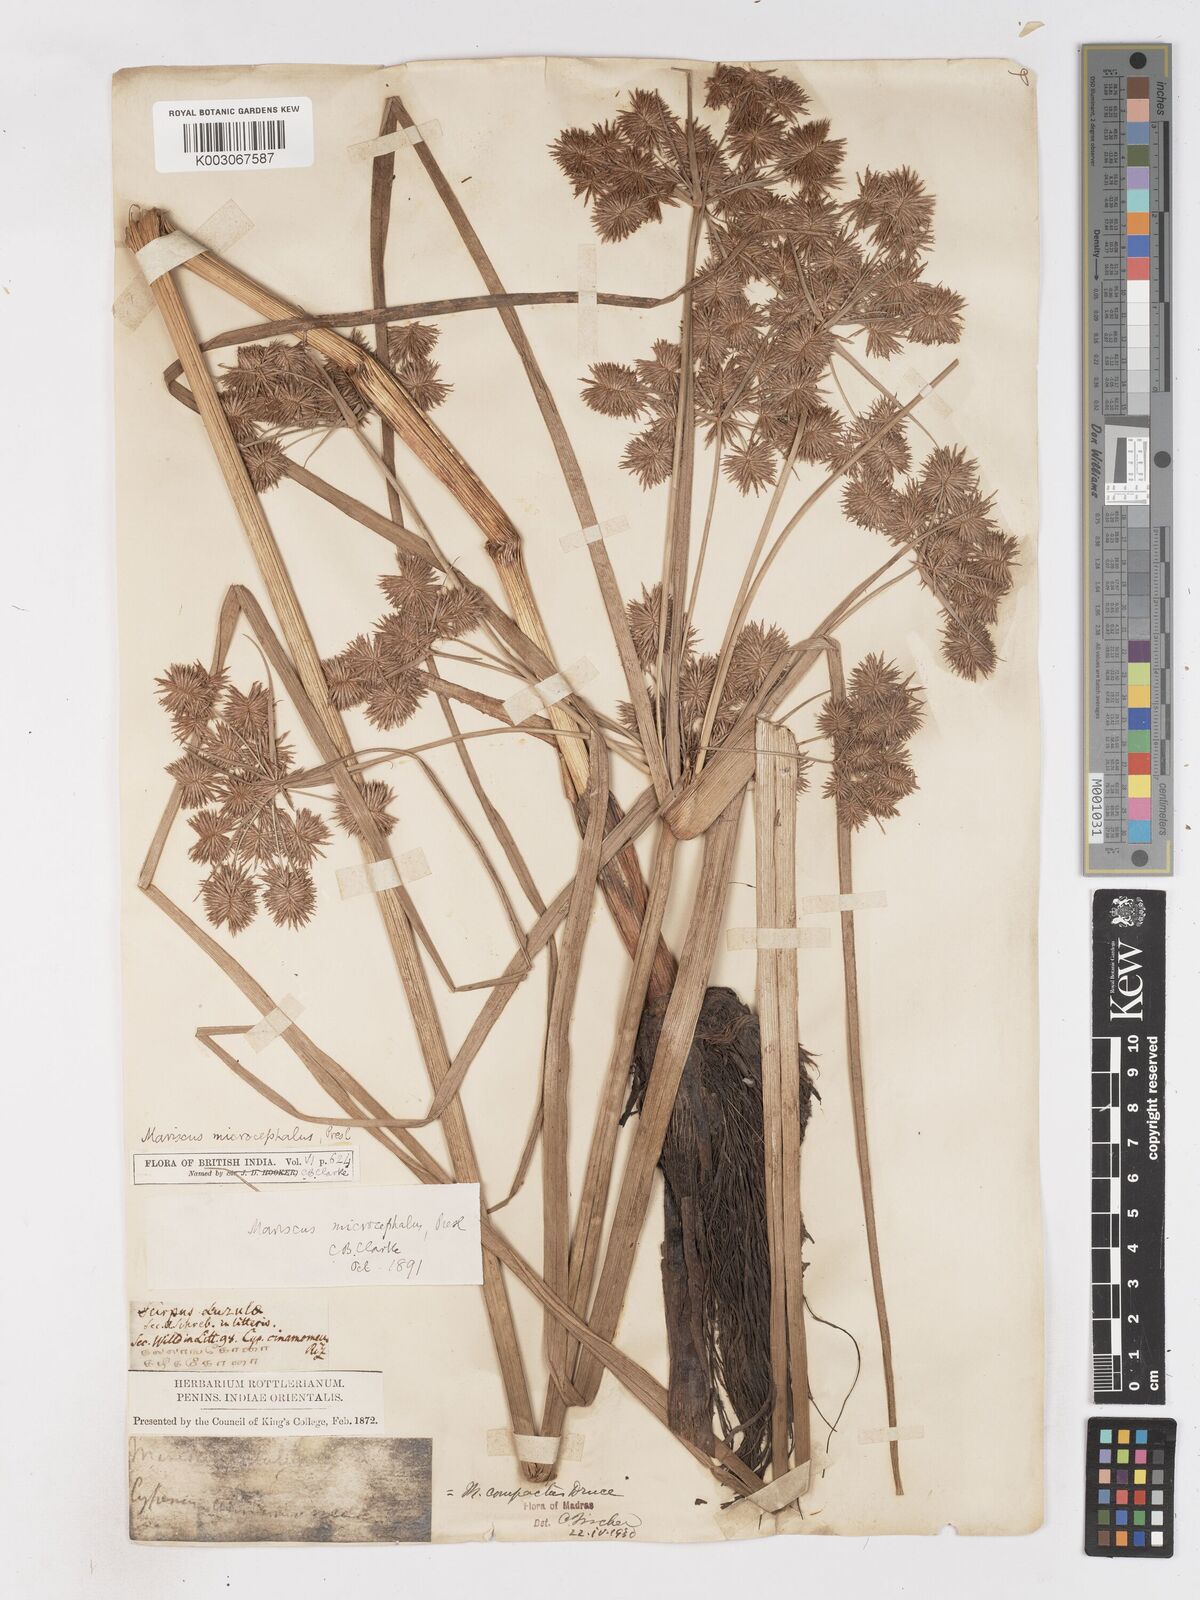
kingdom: Plantae
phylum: Tracheophyta
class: Liliopsida
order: Poales
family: Cyperaceae
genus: Cyperus
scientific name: Cyperus compactus
